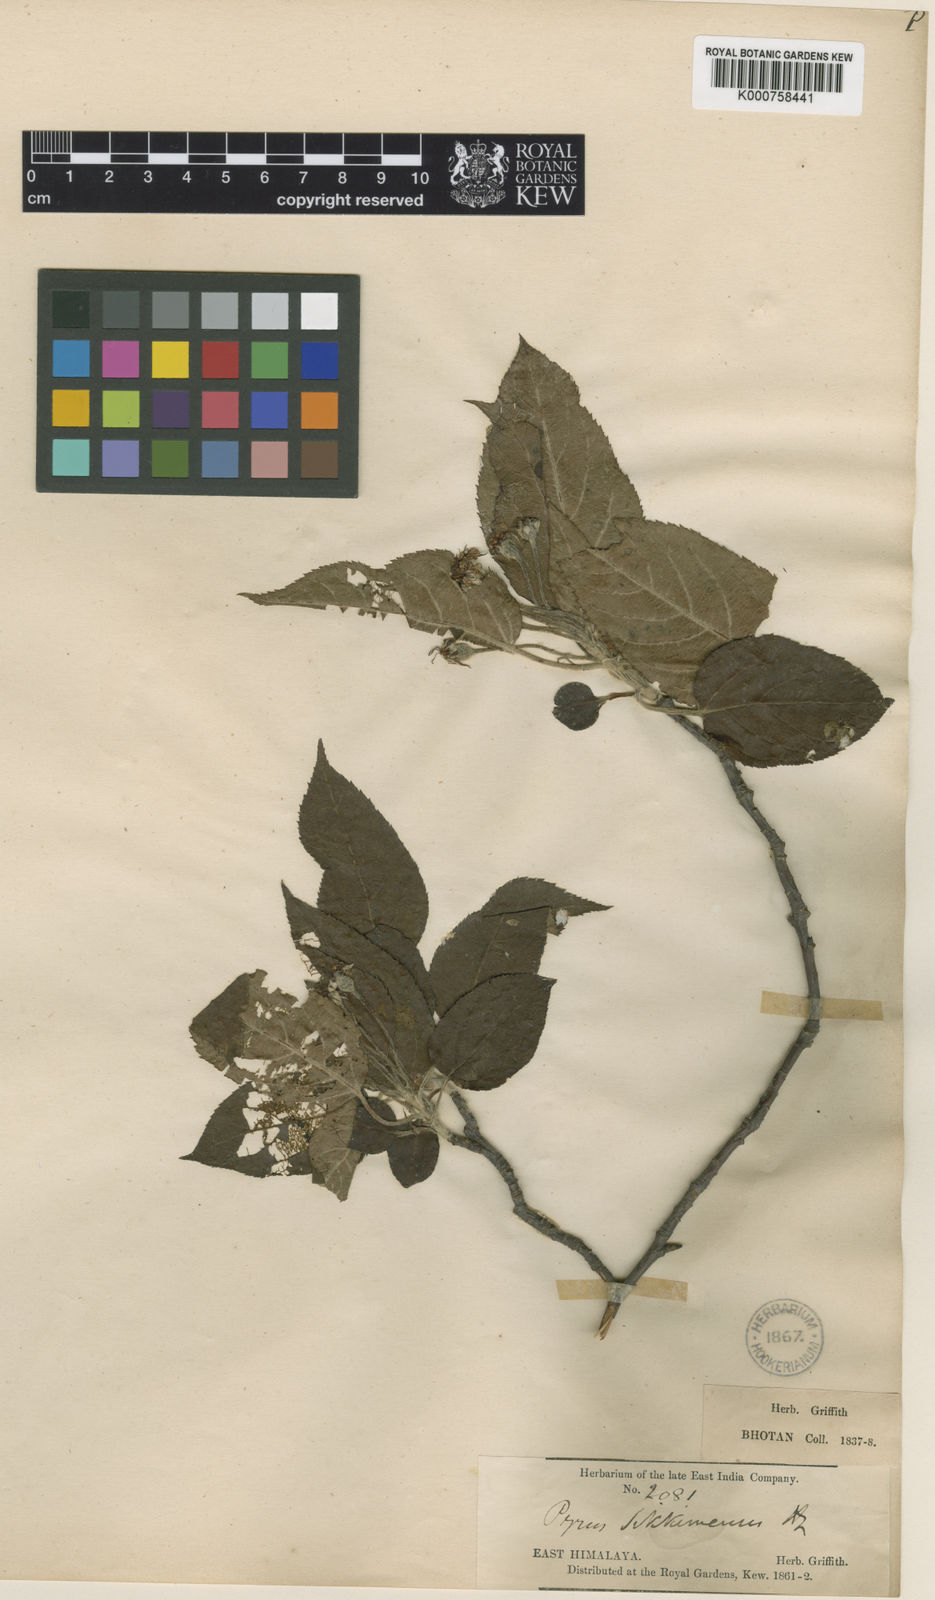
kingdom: Plantae
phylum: Tracheophyta
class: Magnoliopsida
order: Rosales
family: Rosaceae
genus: Malus
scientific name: Malus sikkimensis
